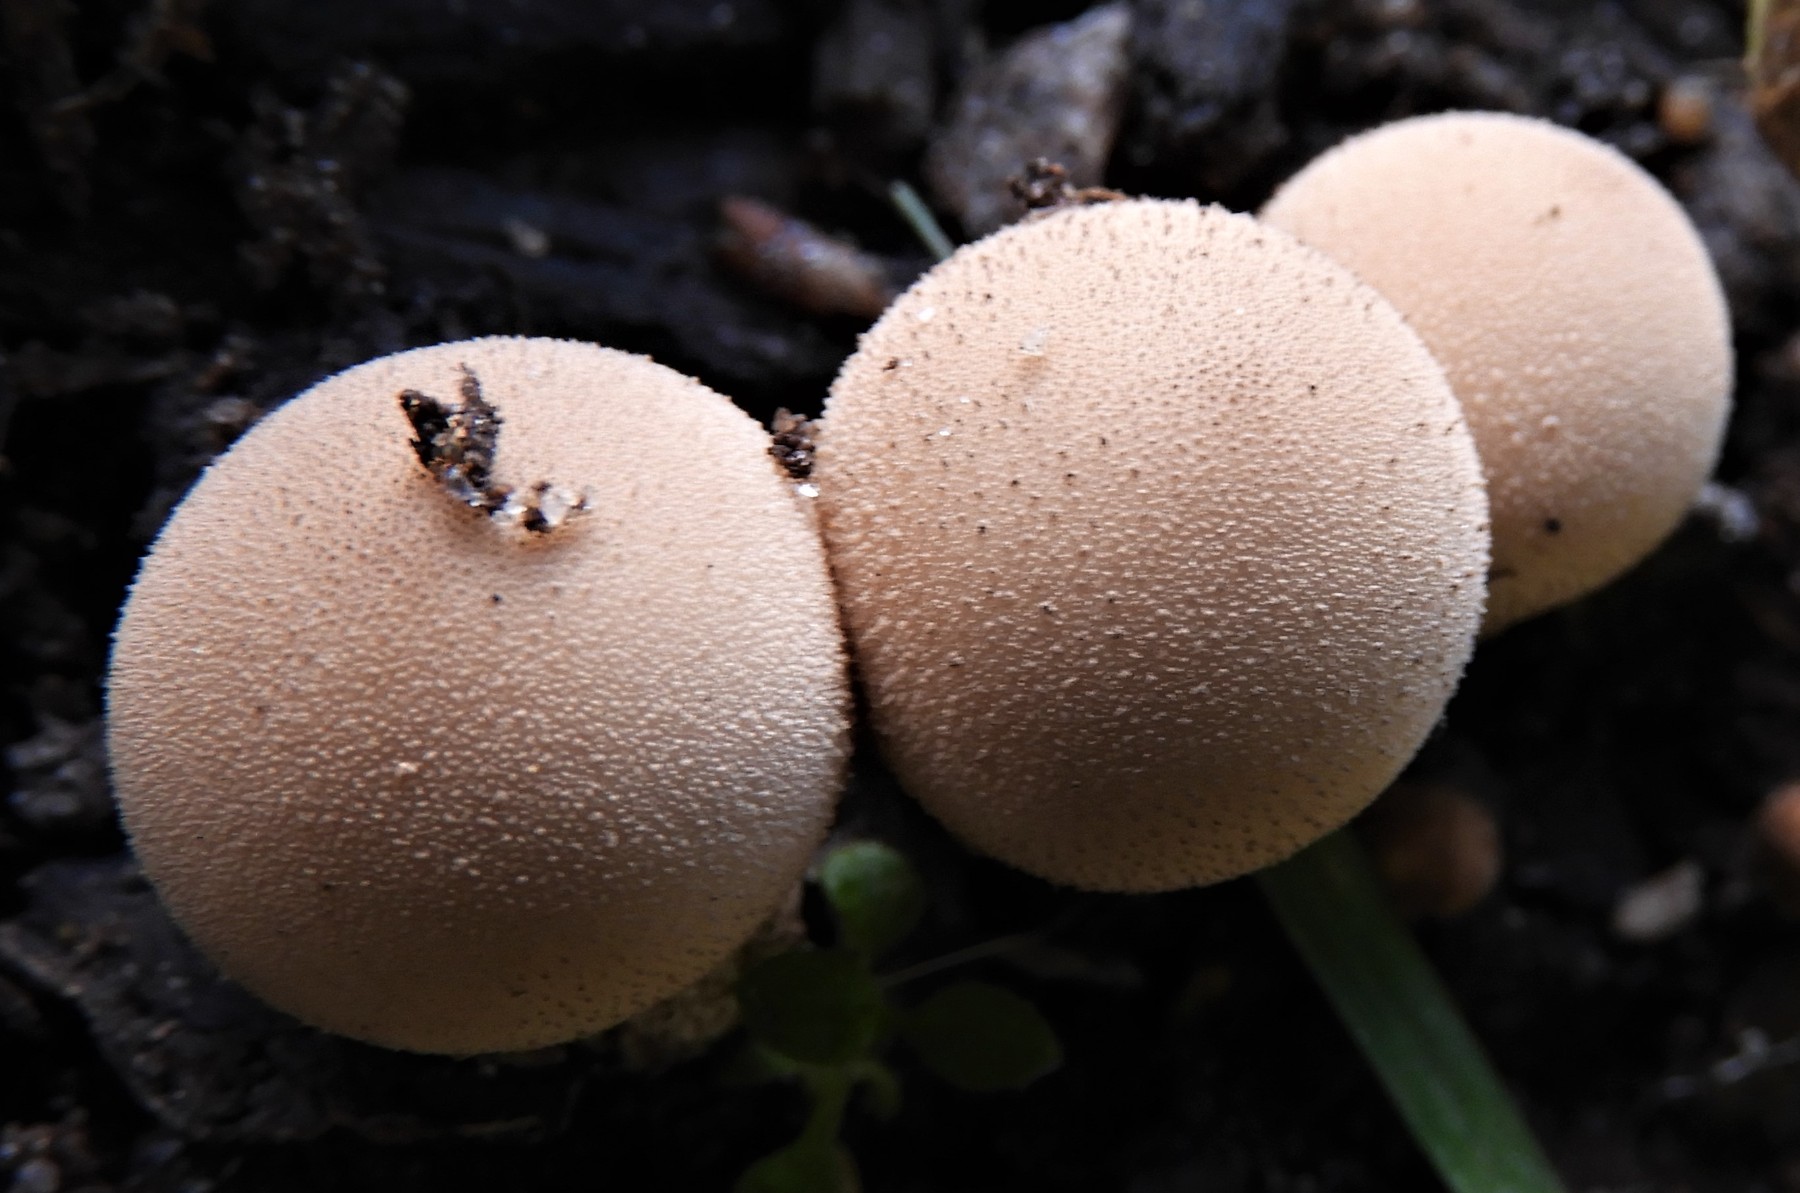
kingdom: Fungi
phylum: Basidiomycota
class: Agaricomycetes
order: Agaricales
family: Lycoperdaceae
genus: Apioperdon
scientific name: Apioperdon pyriforme
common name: pære-støvbold
